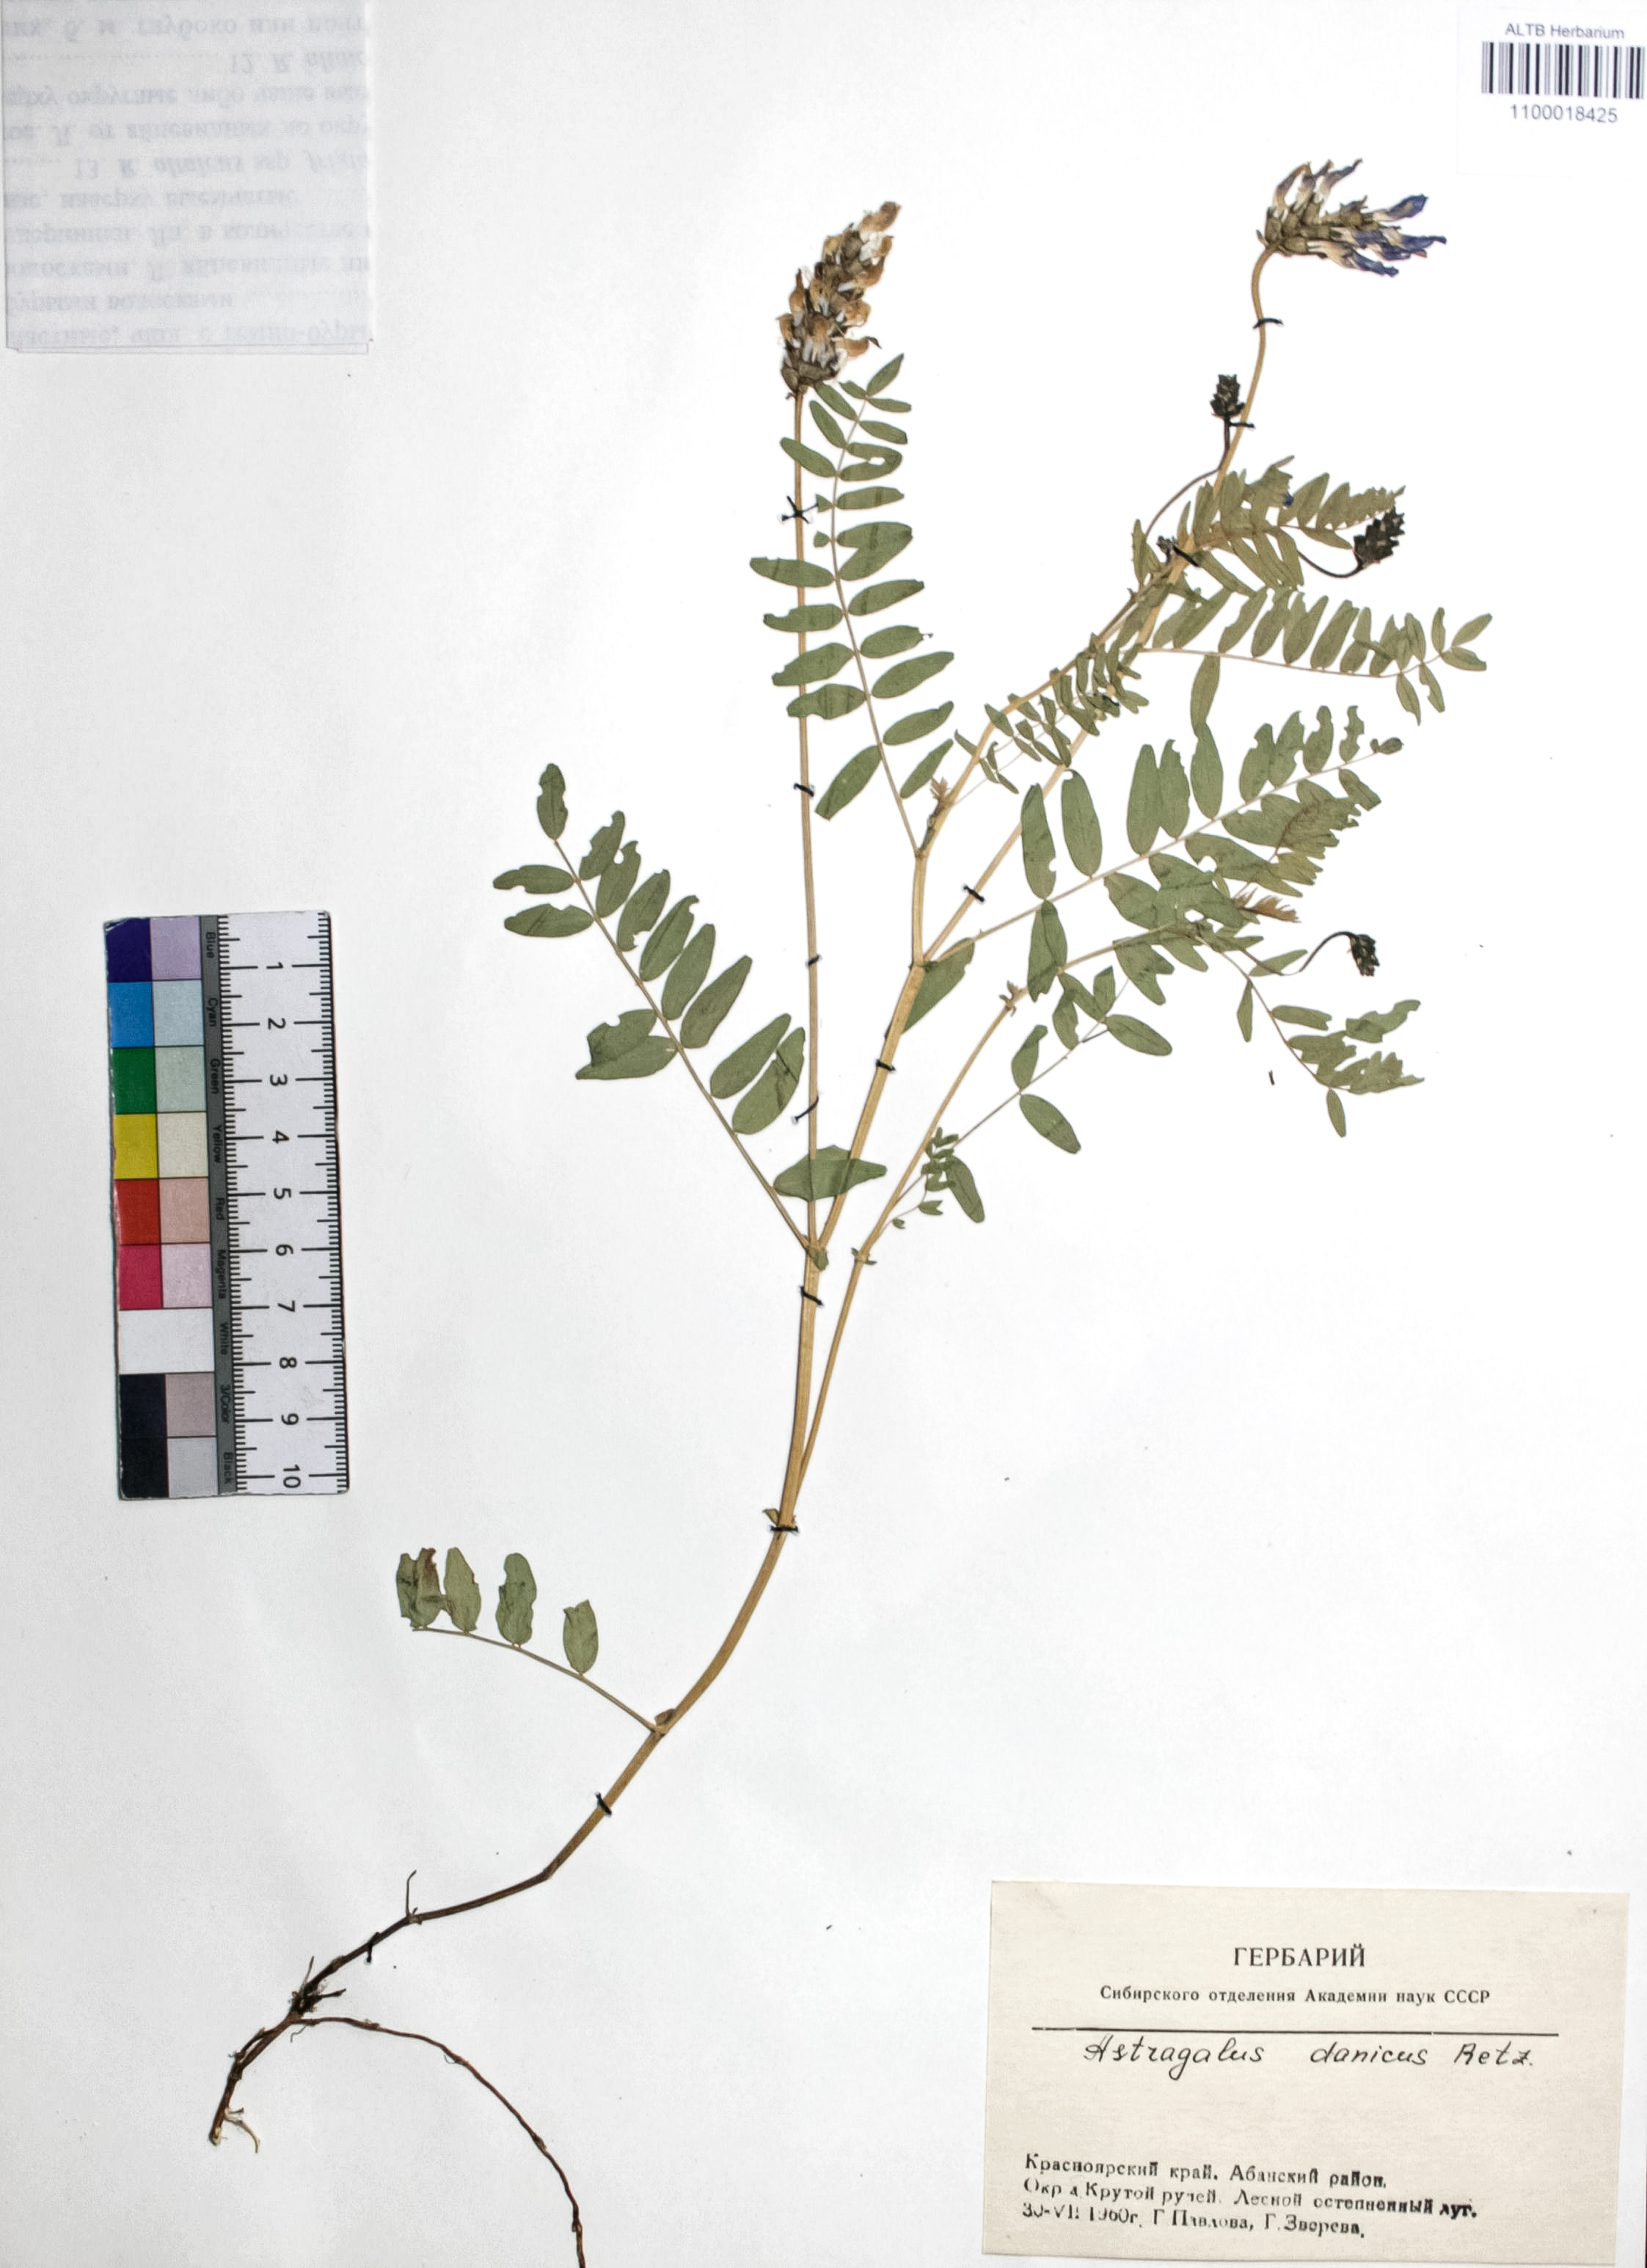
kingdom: Plantae
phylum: Tracheophyta
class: Magnoliopsida
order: Fabales
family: Fabaceae
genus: Astragalus
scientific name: Astragalus danicus
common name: Purple milk-vetch
